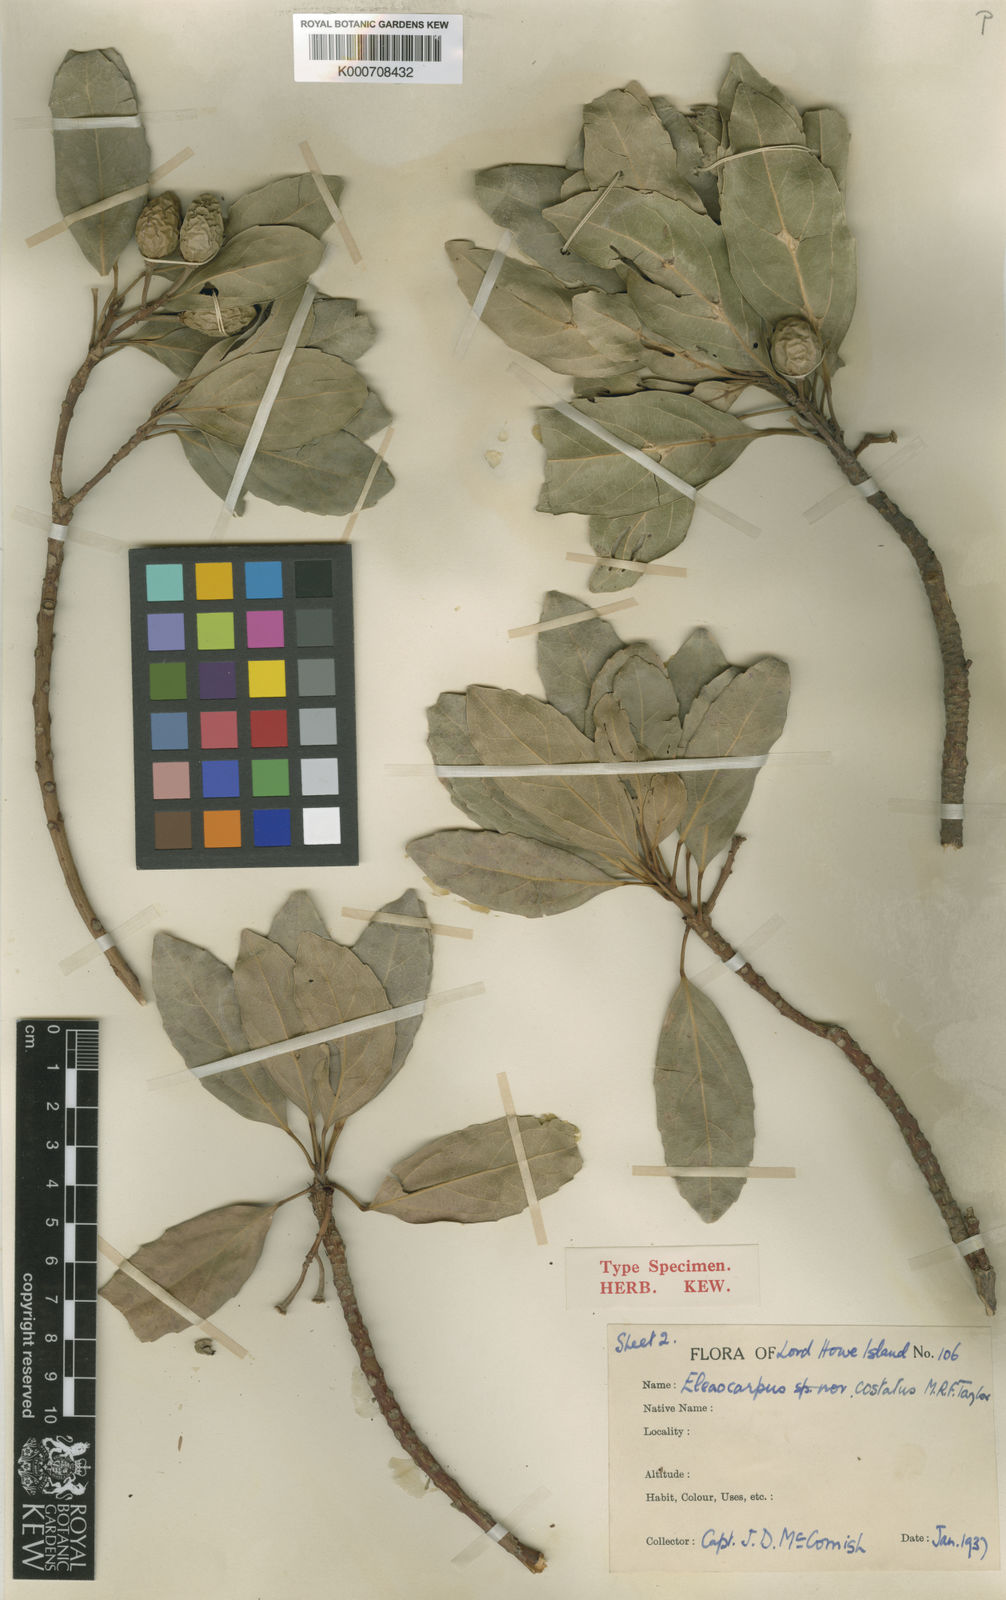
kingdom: Plantae
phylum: Tracheophyta
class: Magnoliopsida
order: Oxalidales
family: Elaeocarpaceae
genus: Elaeocarpus
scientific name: Elaeocarpus costatus
